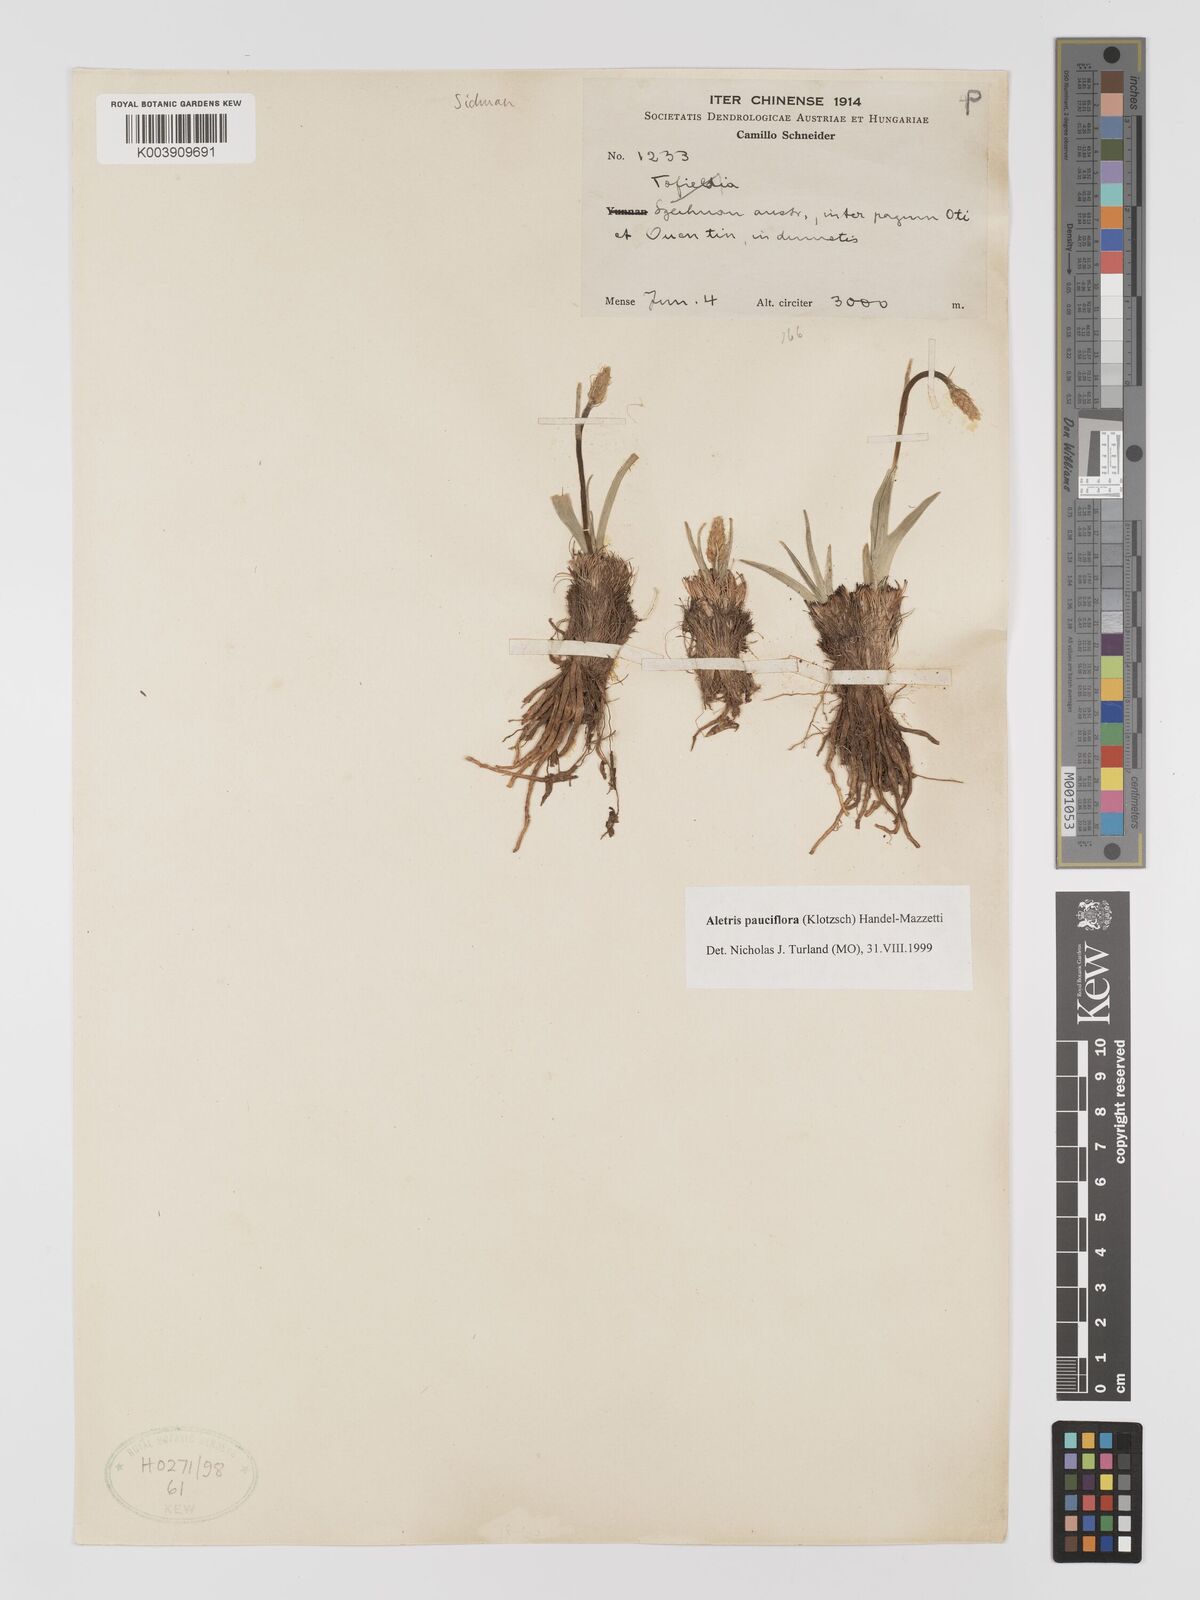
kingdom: Plantae
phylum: Tracheophyta
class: Liliopsida
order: Dioscoreales
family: Nartheciaceae
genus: Aletris
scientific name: Aletris pauciflora
